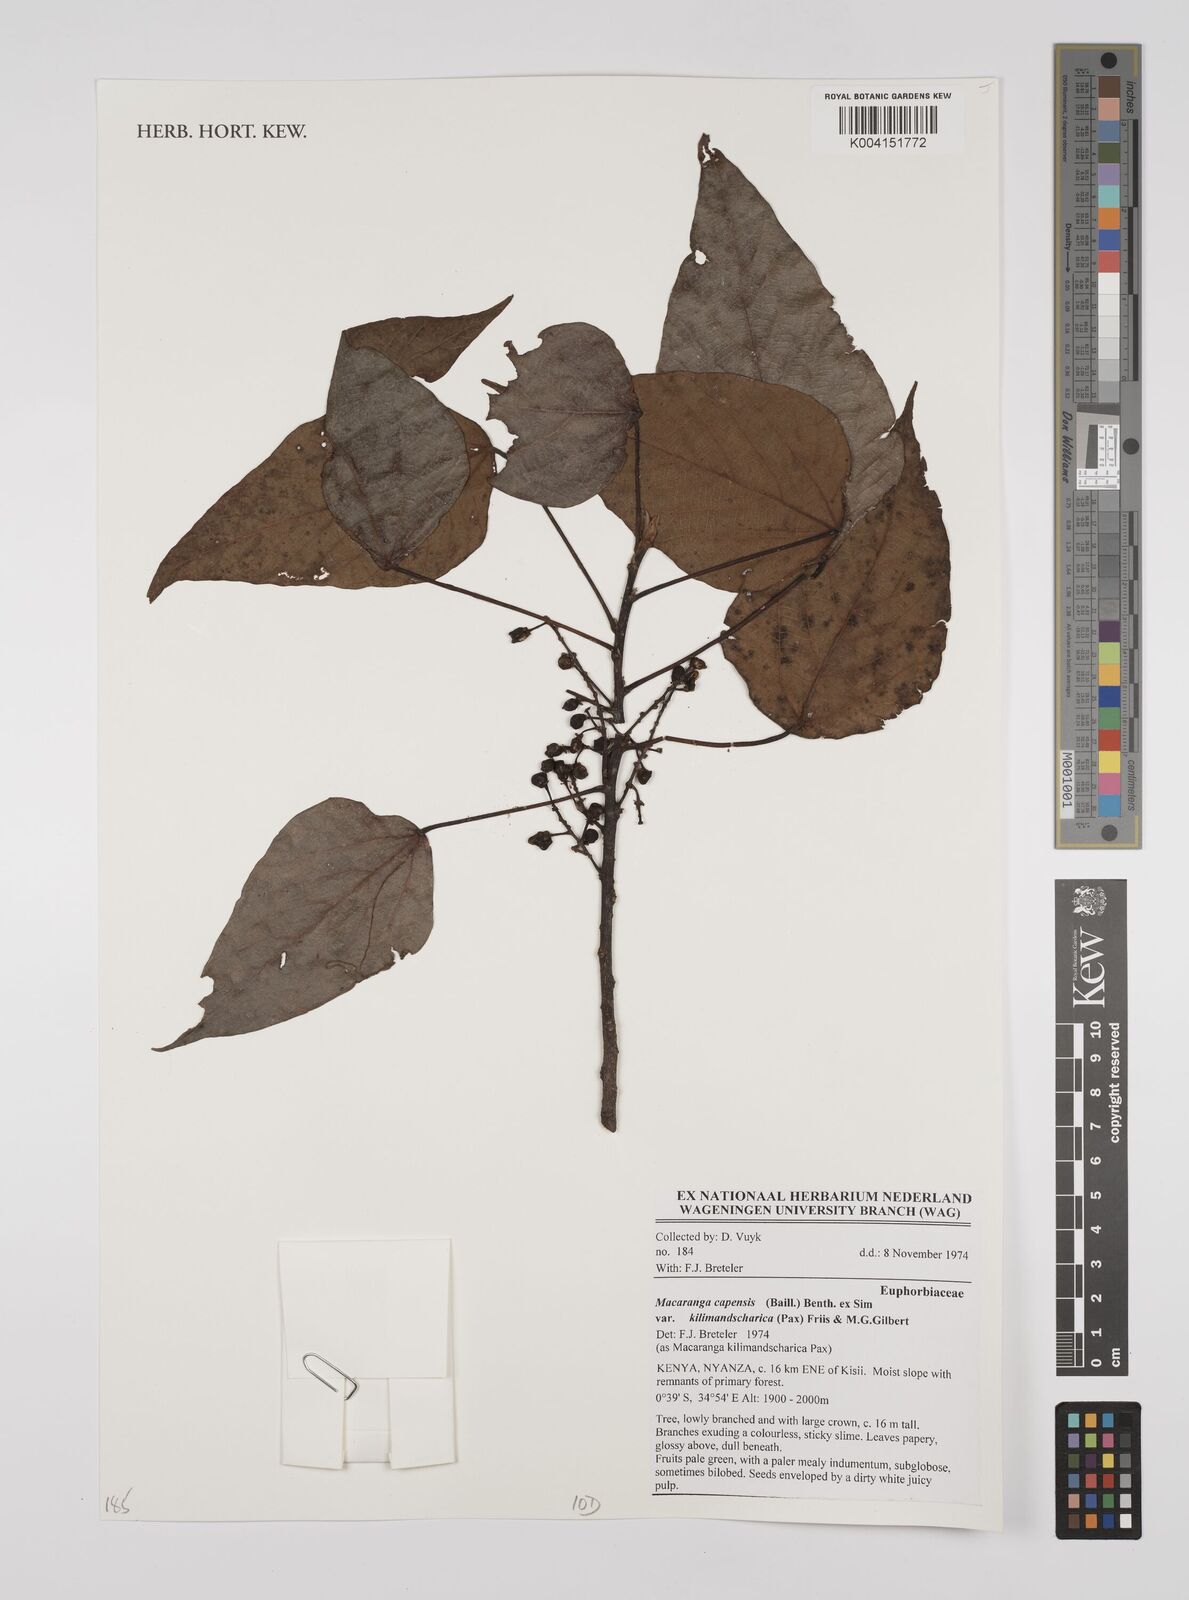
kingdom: Plantae
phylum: Tracheophyta
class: Magnoliopsida
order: Malpighiales
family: Euphorbiaceae
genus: Macaranga
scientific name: Macaranga capensis
